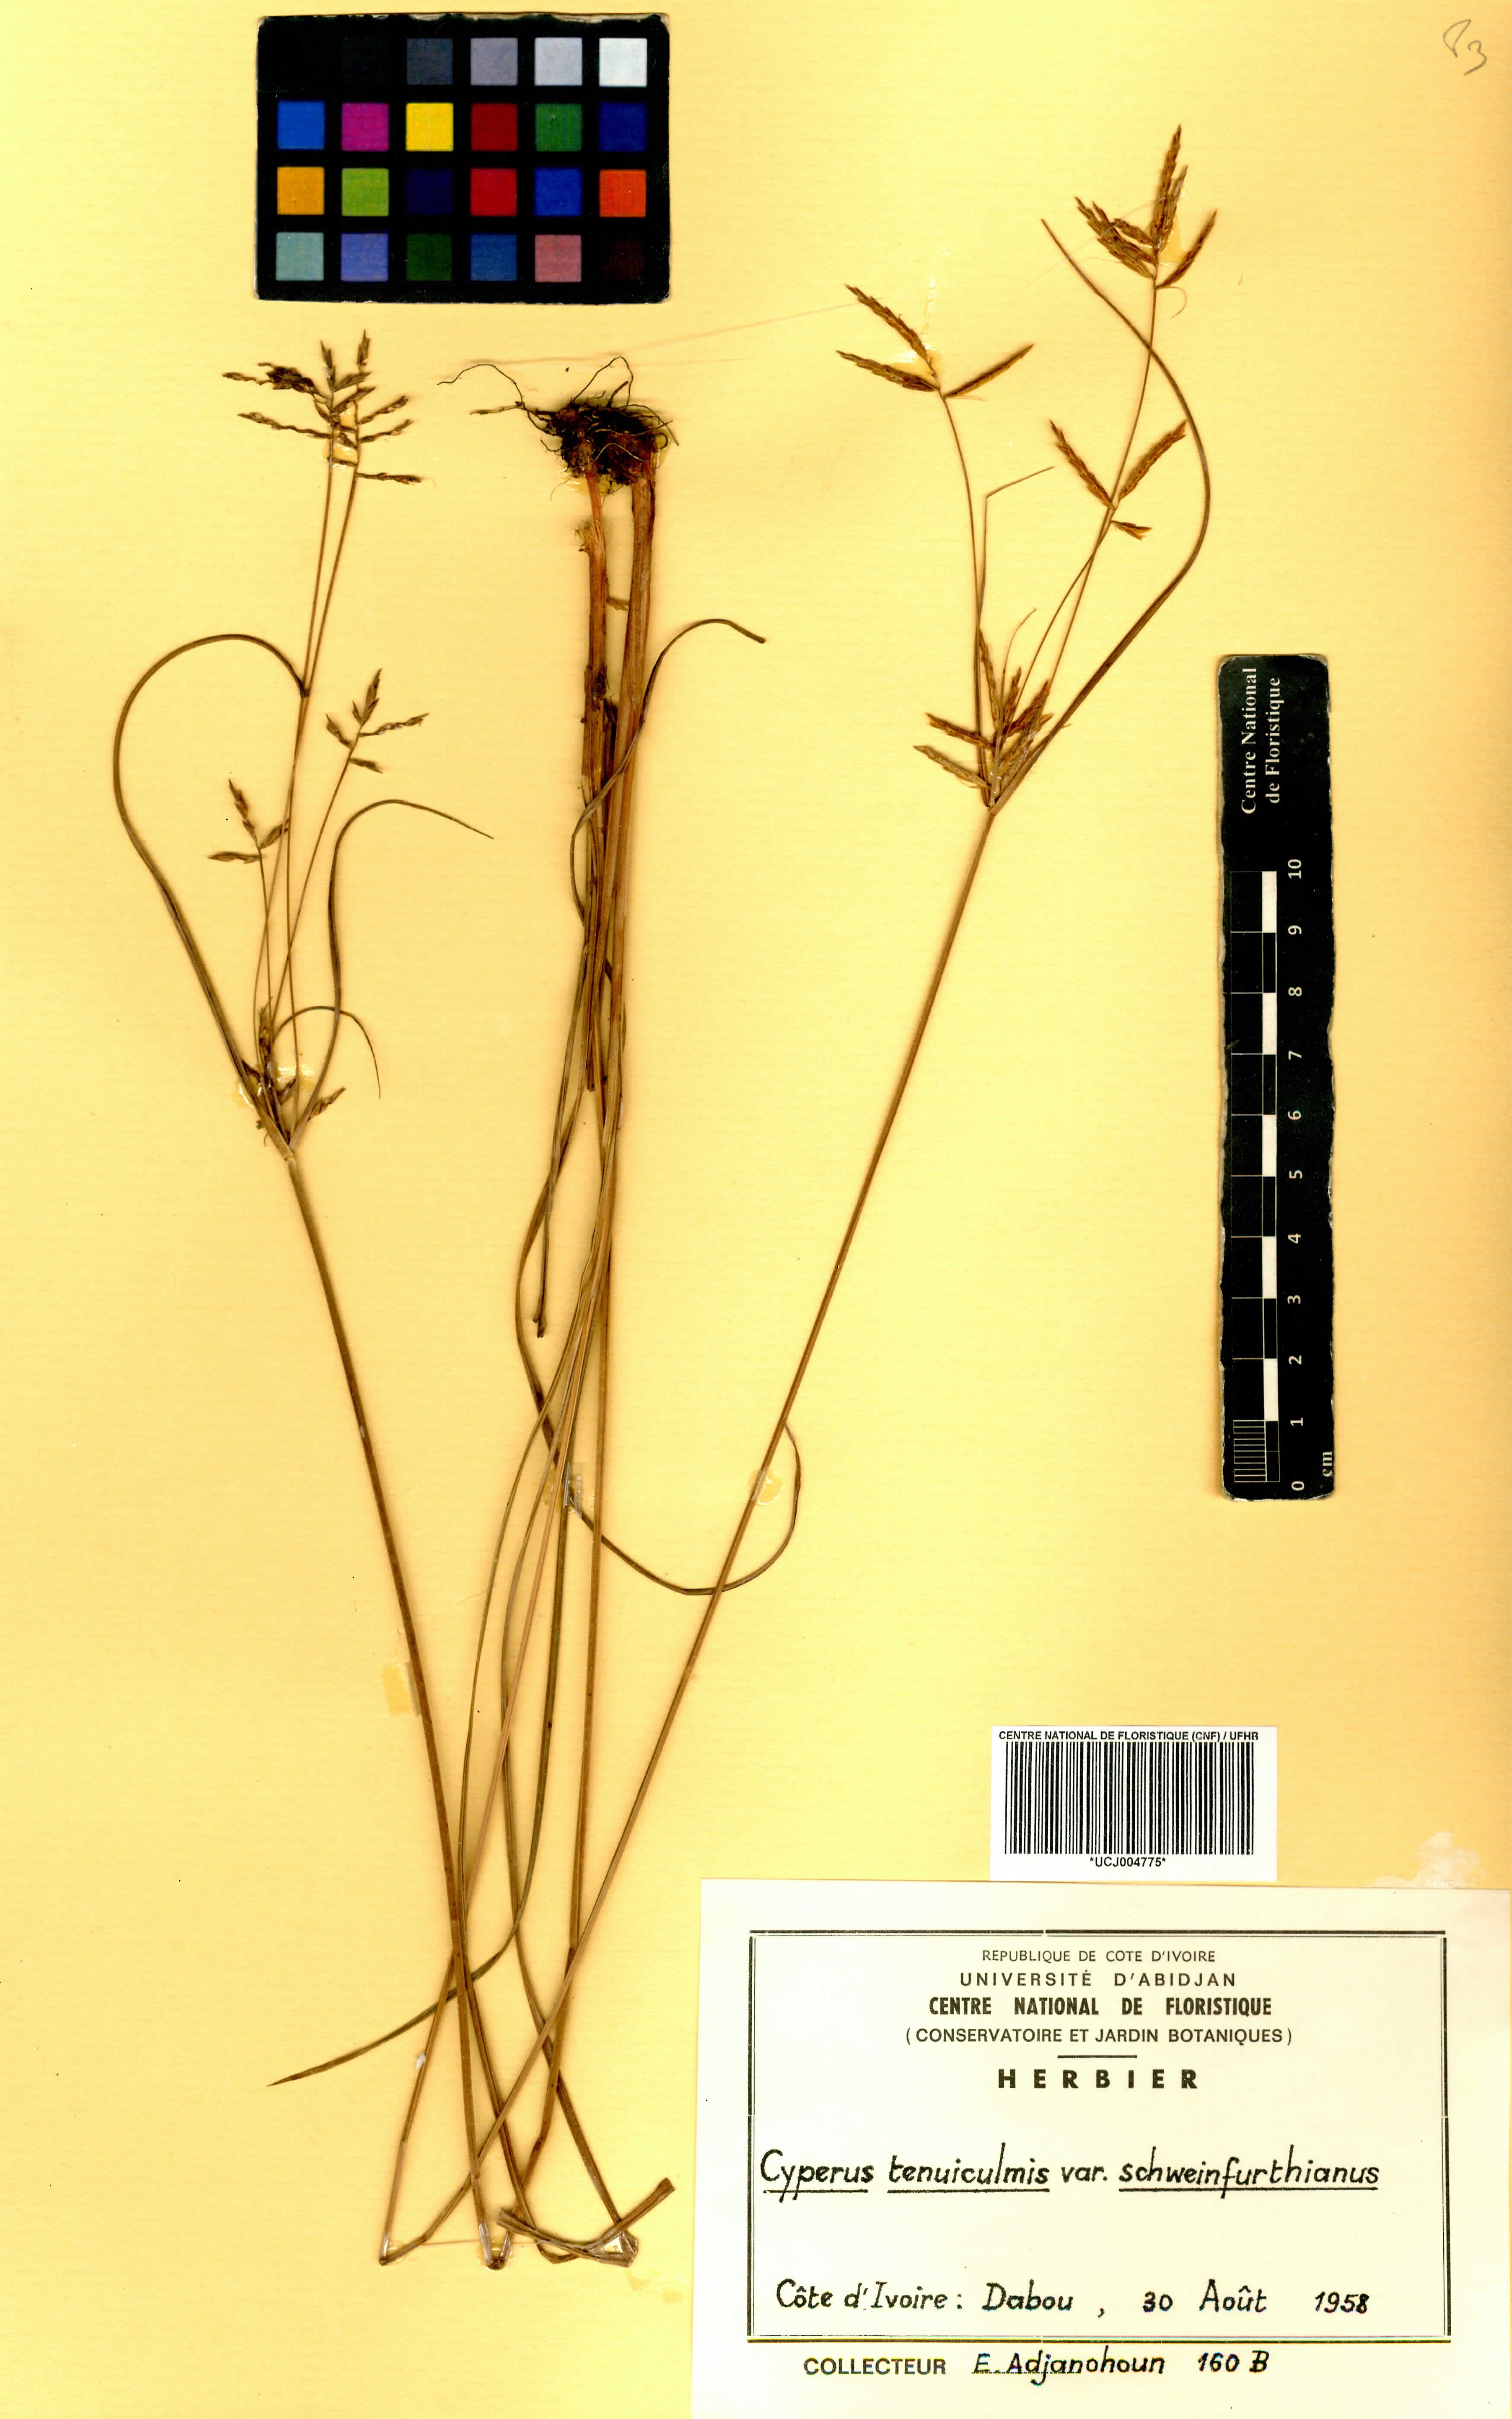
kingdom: Plantae
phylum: Tracheophyta
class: Liliopsida
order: Poales
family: Cyperaceae
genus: Cyperus
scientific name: Cyperus tenuiculmis
